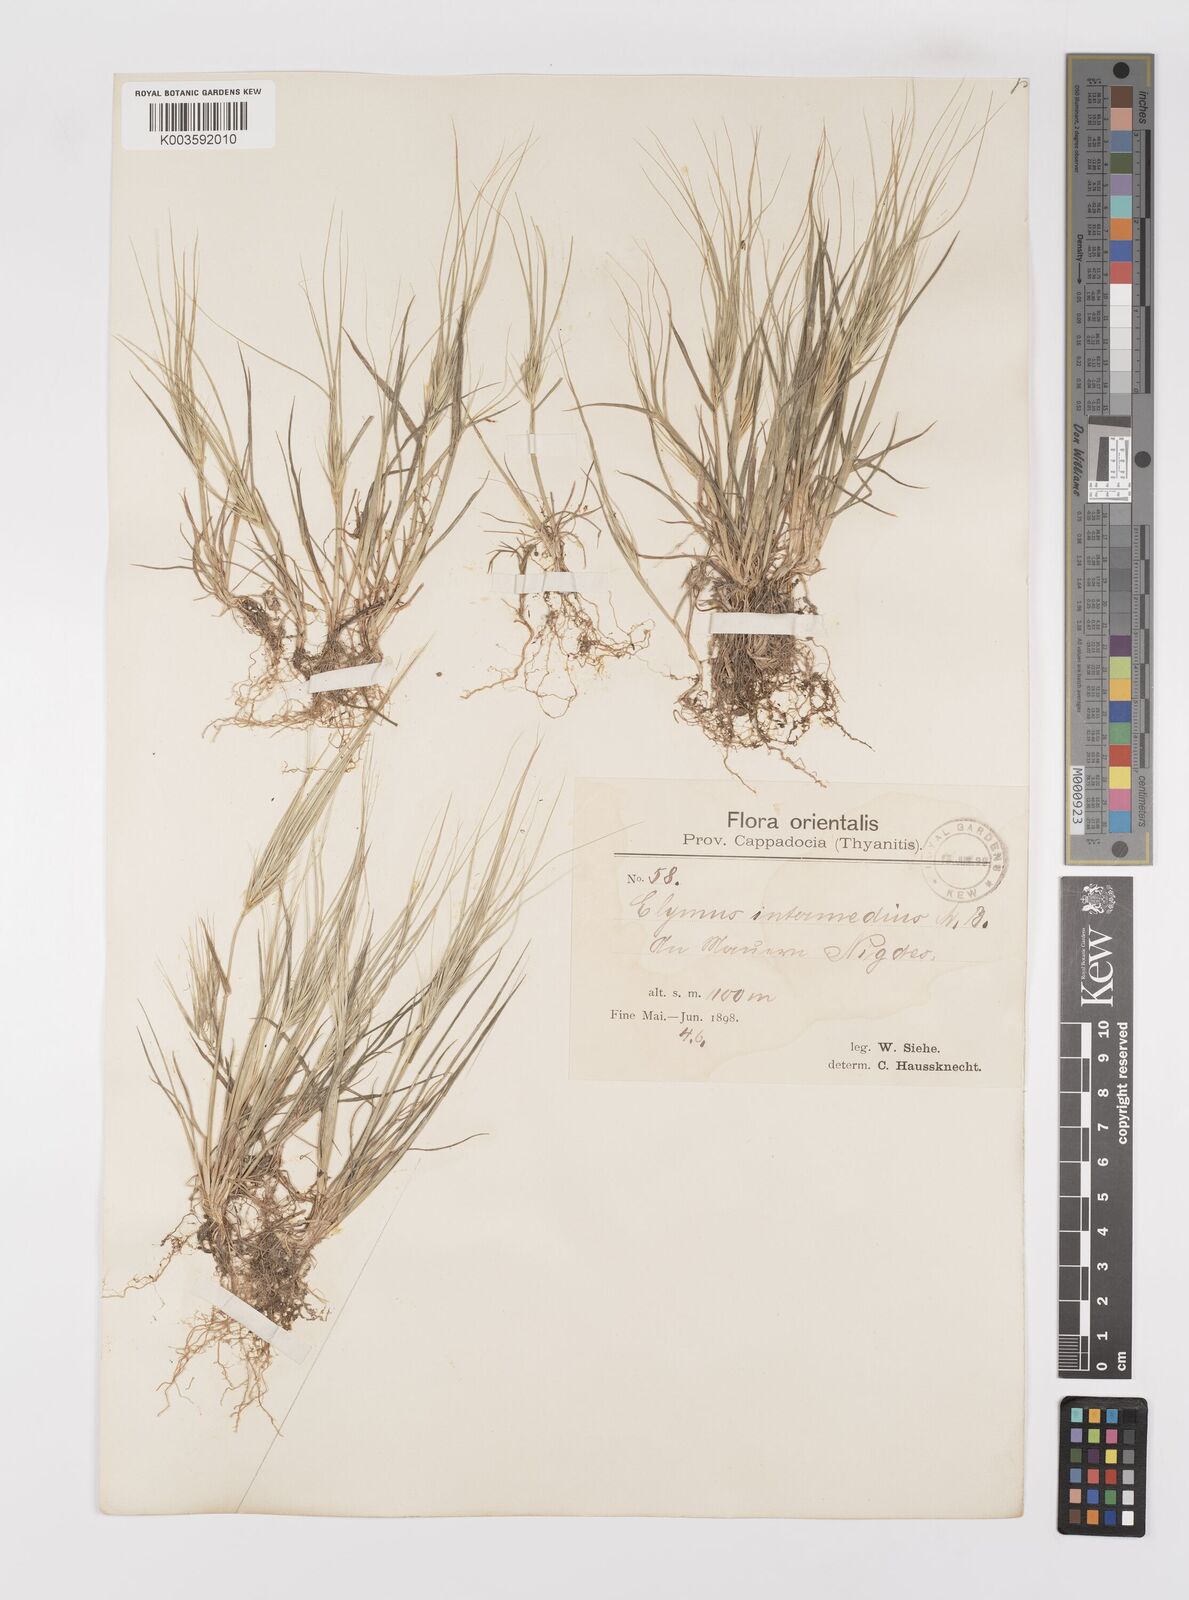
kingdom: Plantae
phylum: Tracheophyta
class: Liliopsida
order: Poales
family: Poaceae
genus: Taeniatherum
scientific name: Taeniatherum caput-medusae
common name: Medusahead
